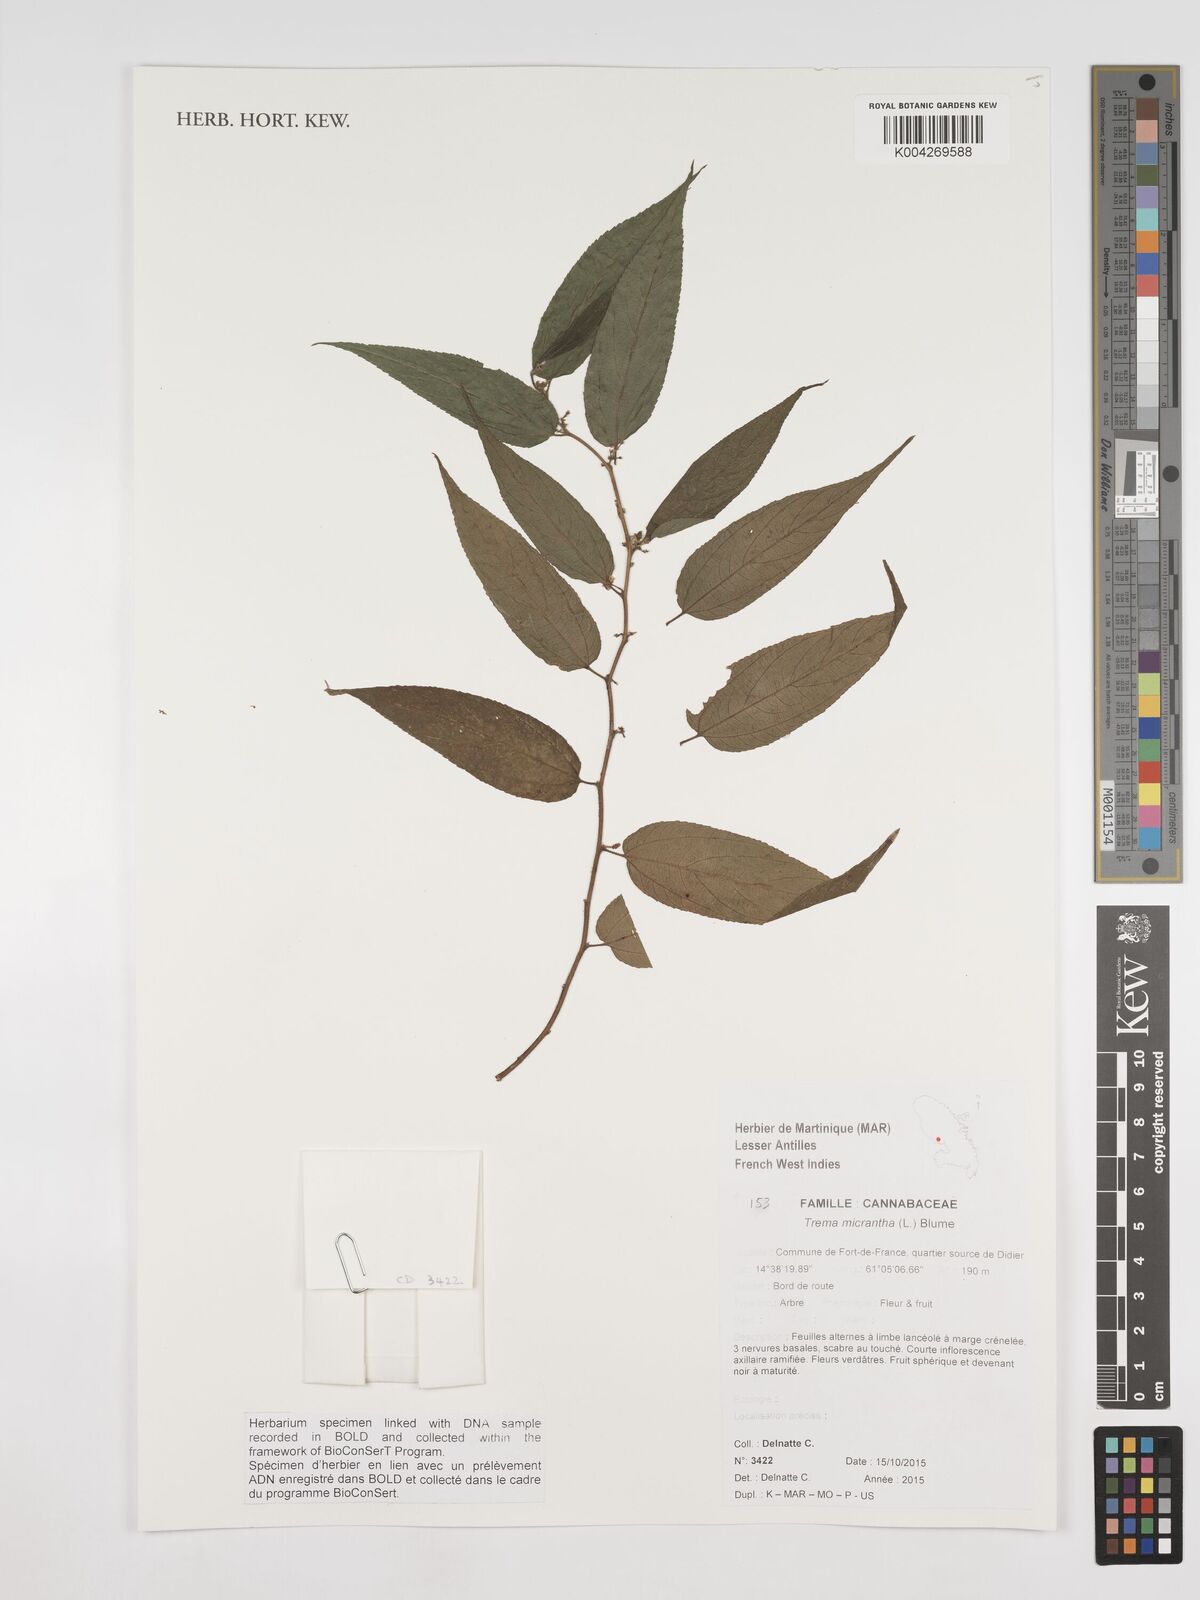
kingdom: Plantae
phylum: Tracheophyta
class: Magnoliopsida
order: Rosales
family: Cannabaceae
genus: Trema
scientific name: Trema micranthum
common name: Jamaican nettletree
